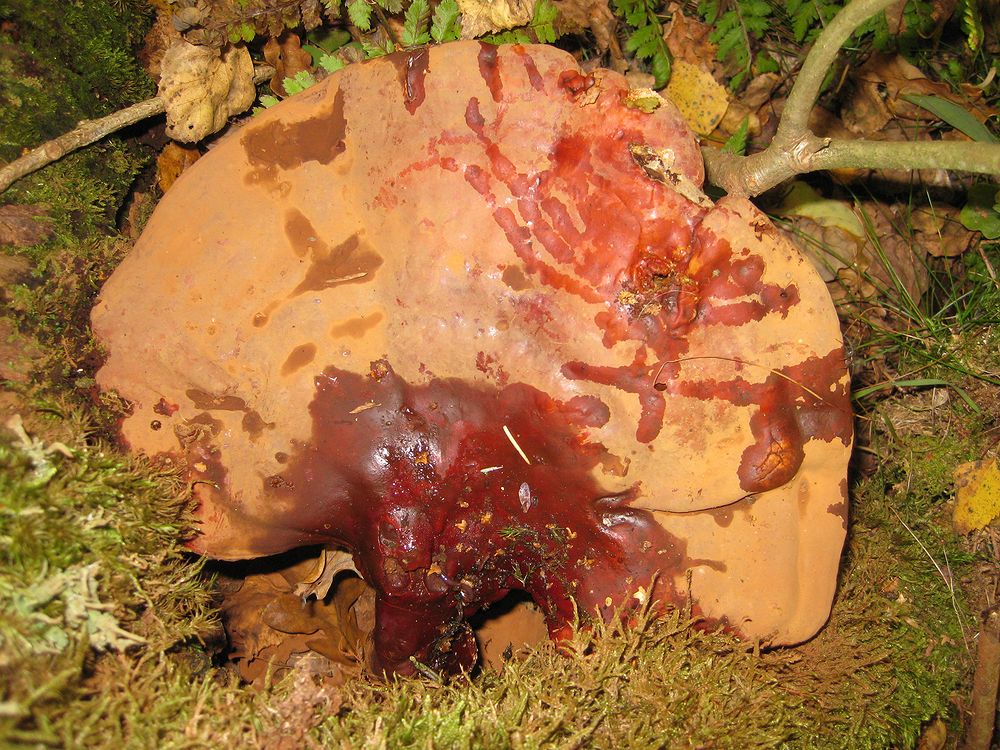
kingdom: Fungi
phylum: Basidiomycota
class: Agaricomycetes
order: Polyporales
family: Polyporaceae
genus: Ganoderma
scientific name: Ganoderma lucidum
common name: skinnende lakporesvamp
